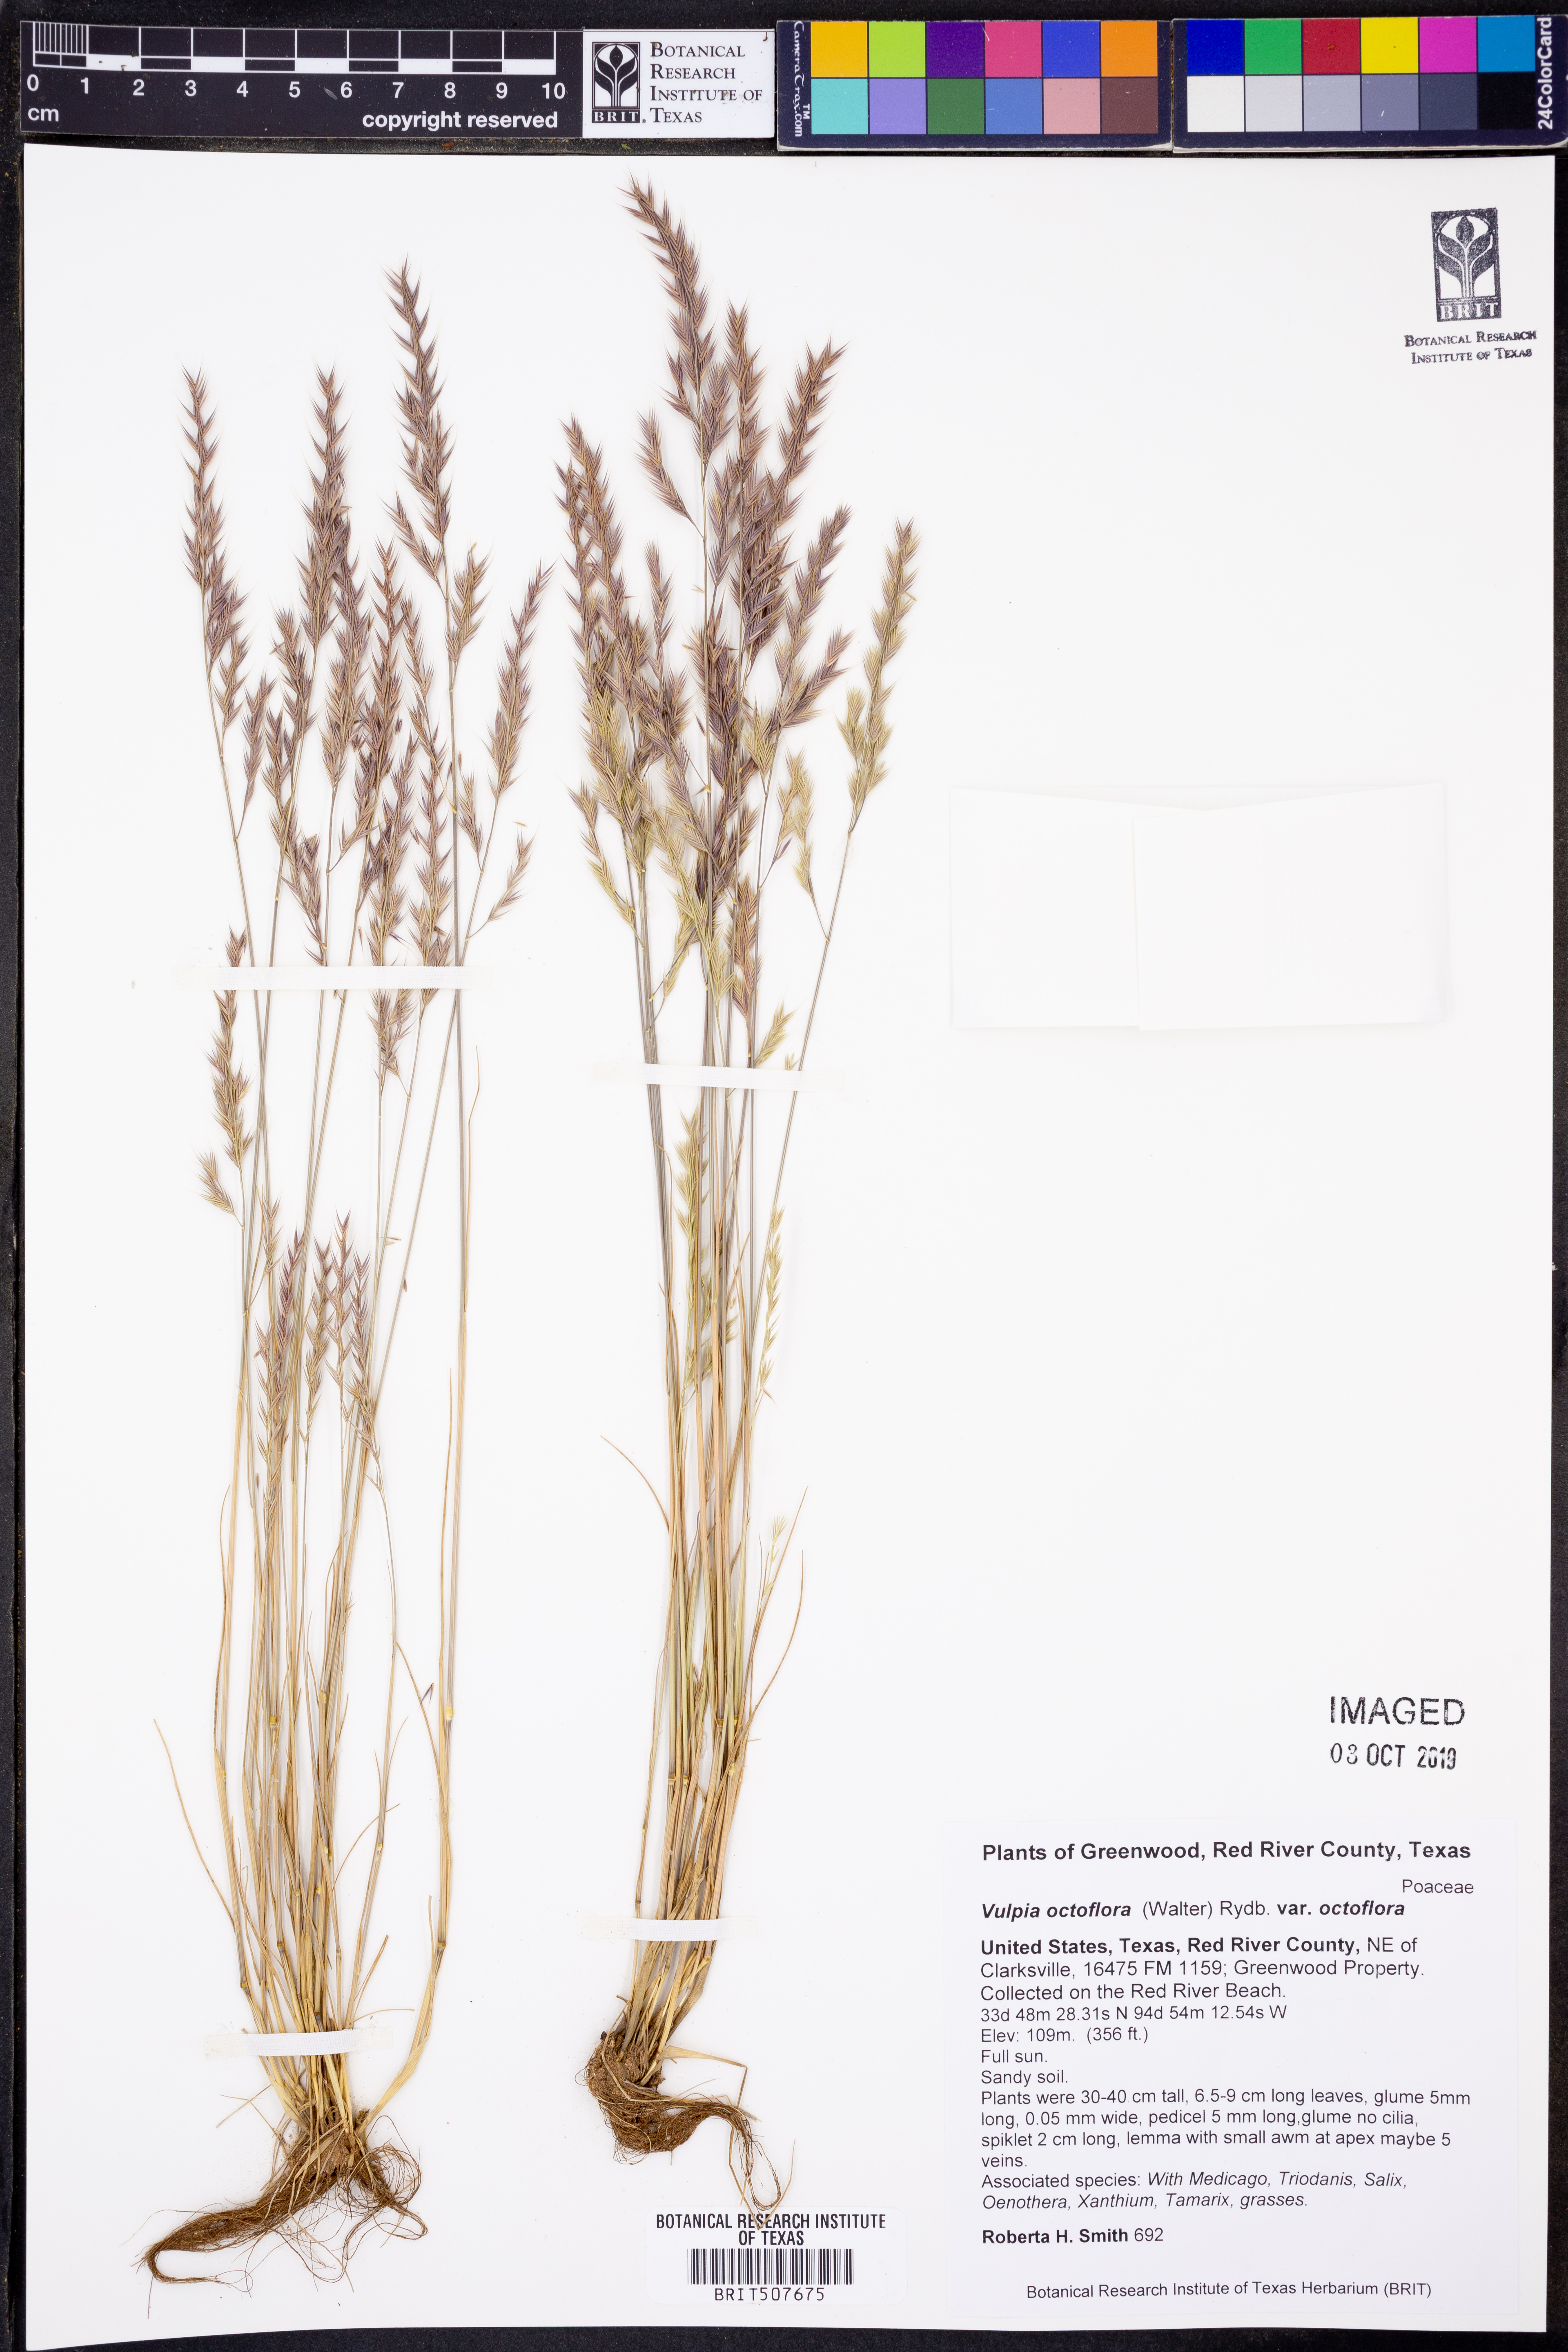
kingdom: Plantae
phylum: Tracheophyta
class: Liliopsida
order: Poales
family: Poaceae
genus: Festuca
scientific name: Festuca octoflora
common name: Sixweeks grass
